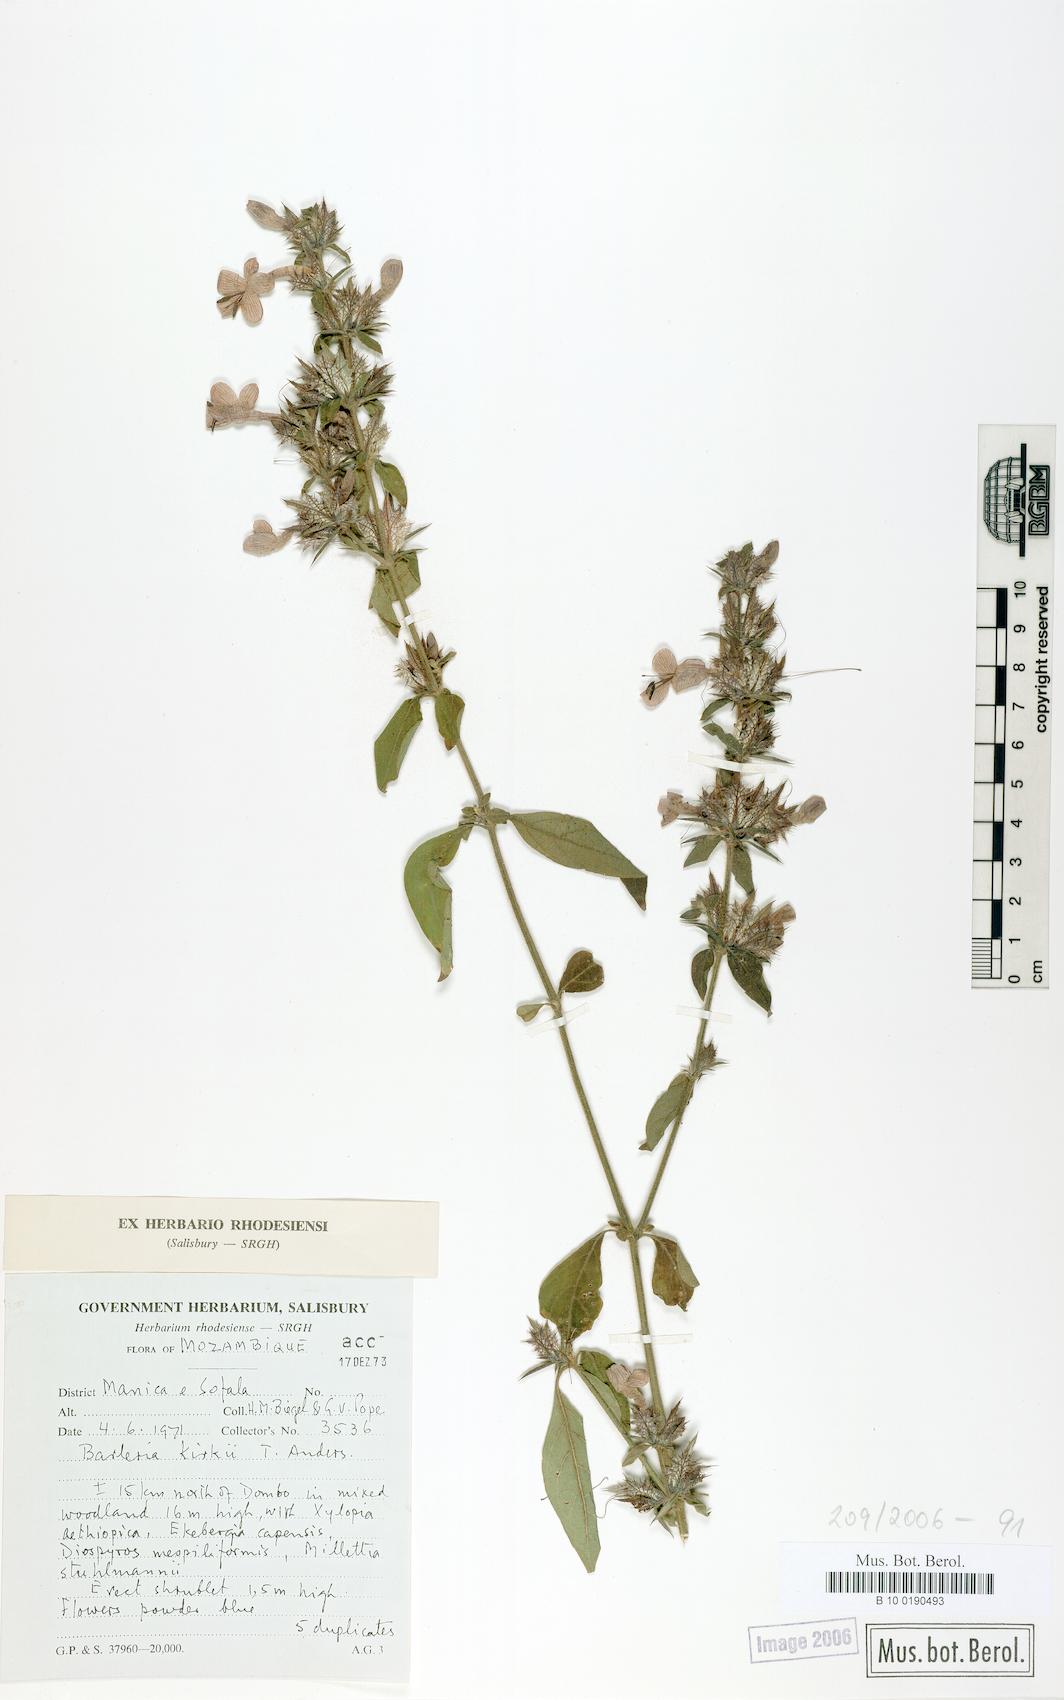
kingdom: Plantae
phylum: Tracheophyta
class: Magnoliopsida
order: Lamiales
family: Acanthaceae
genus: Barleria
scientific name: Barleria spinulosa
